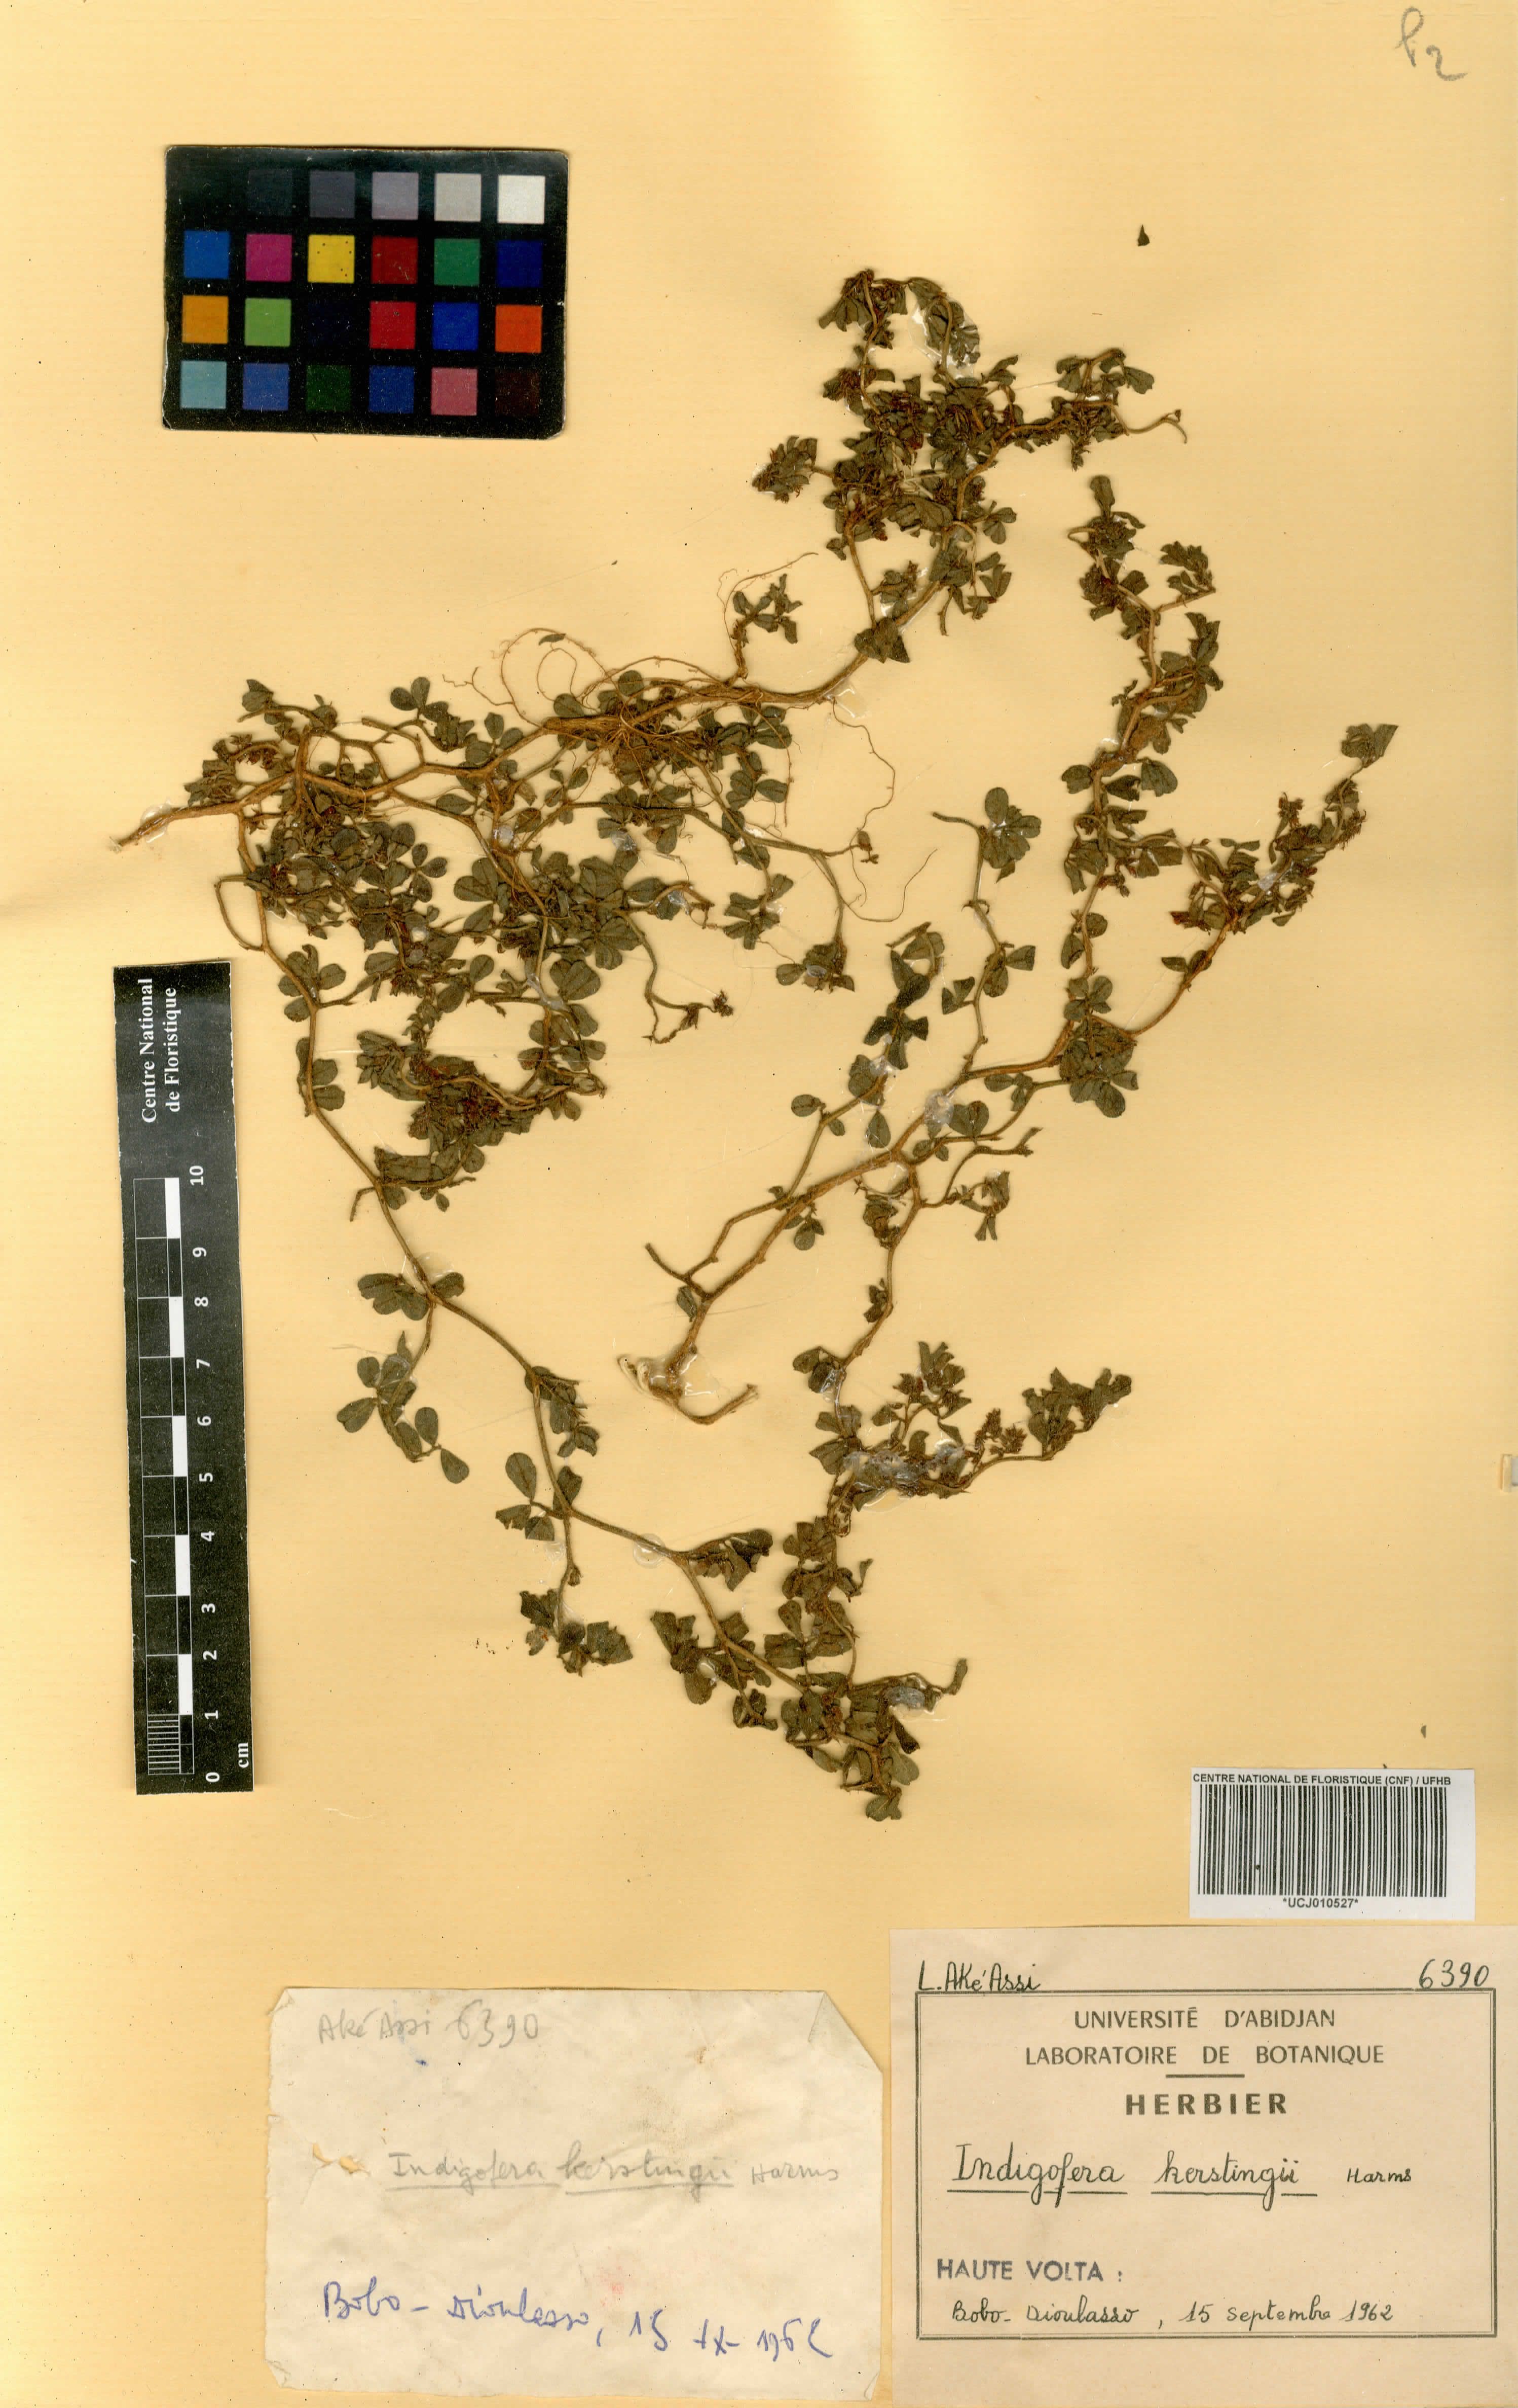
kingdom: Plantae
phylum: Tracheophyta
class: Magnoliopsida
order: Fabales
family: Fabaceae
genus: Indigofera
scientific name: Indigofera kerstingii
